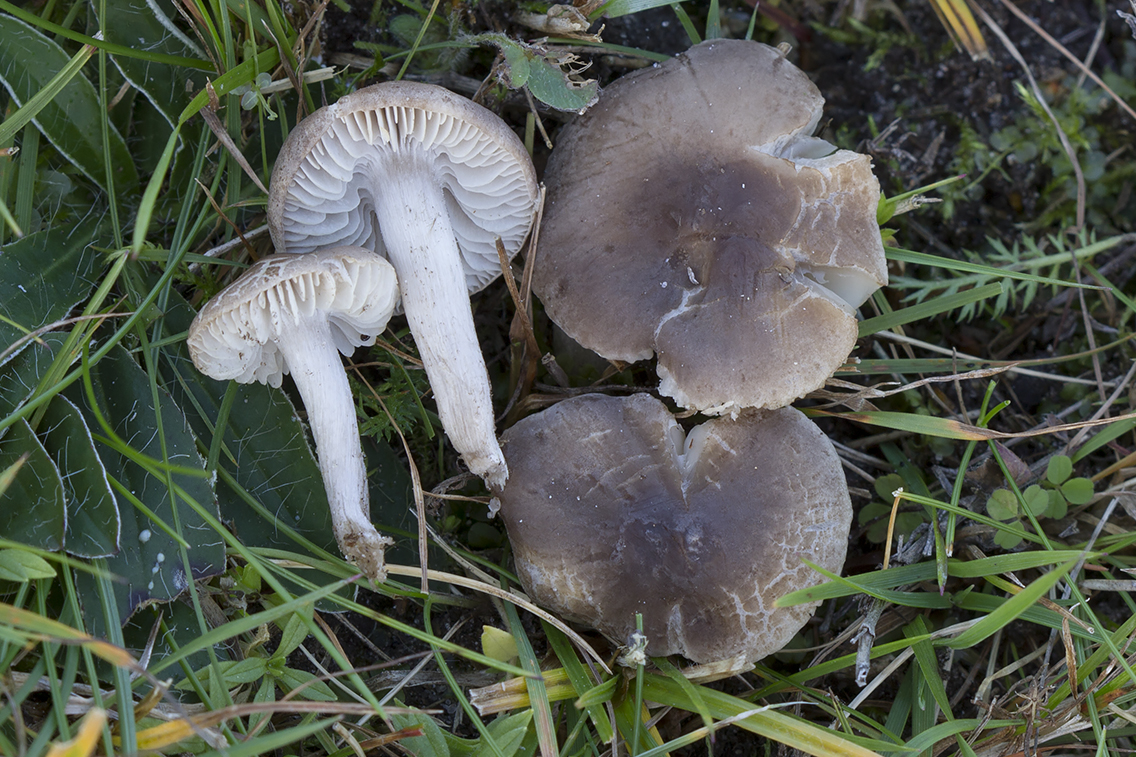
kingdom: Fungi
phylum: Basidiomycota
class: Agaricomycetes
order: Agaricales
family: Tricholomataceae
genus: Dermoloma
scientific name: Dermoloma cuneifolium
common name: eng-nonnehat
